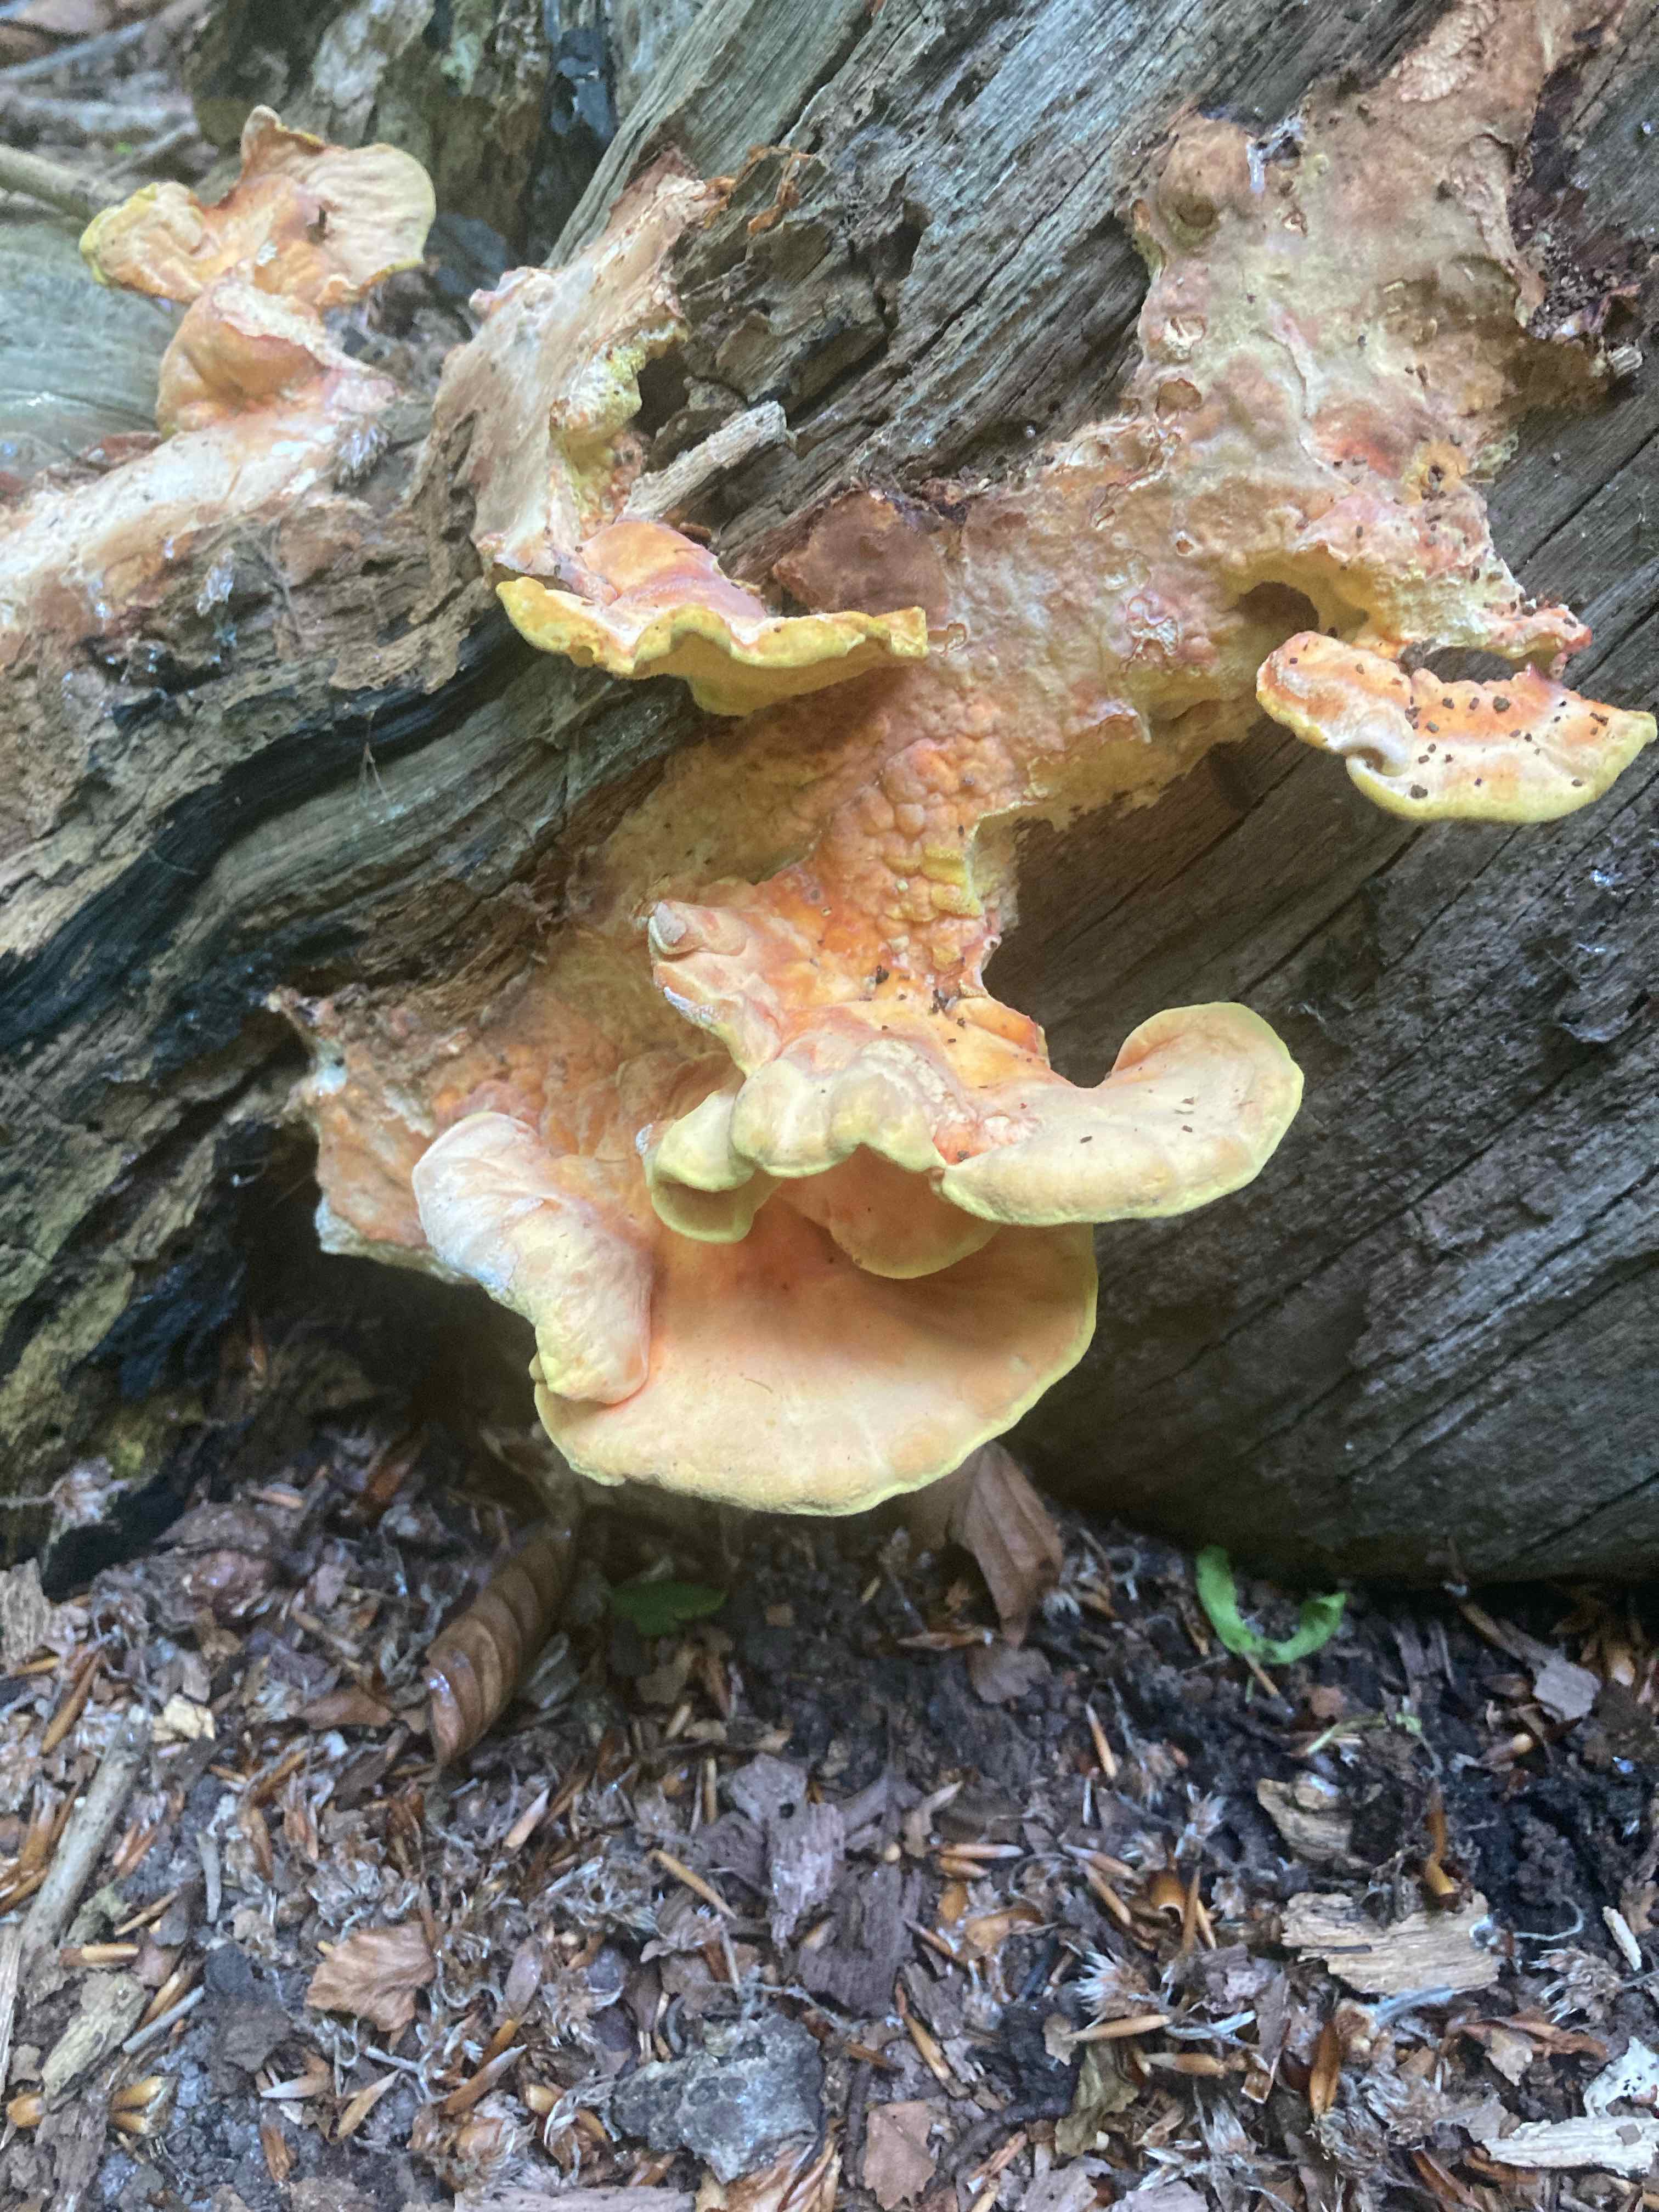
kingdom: Fungi
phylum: Basidiomycota
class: Agaricomycetes
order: Polyporales
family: Laetiporaceae
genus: Laetiporus
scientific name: Laetiporus sulphureus
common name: svovlporesvamp
